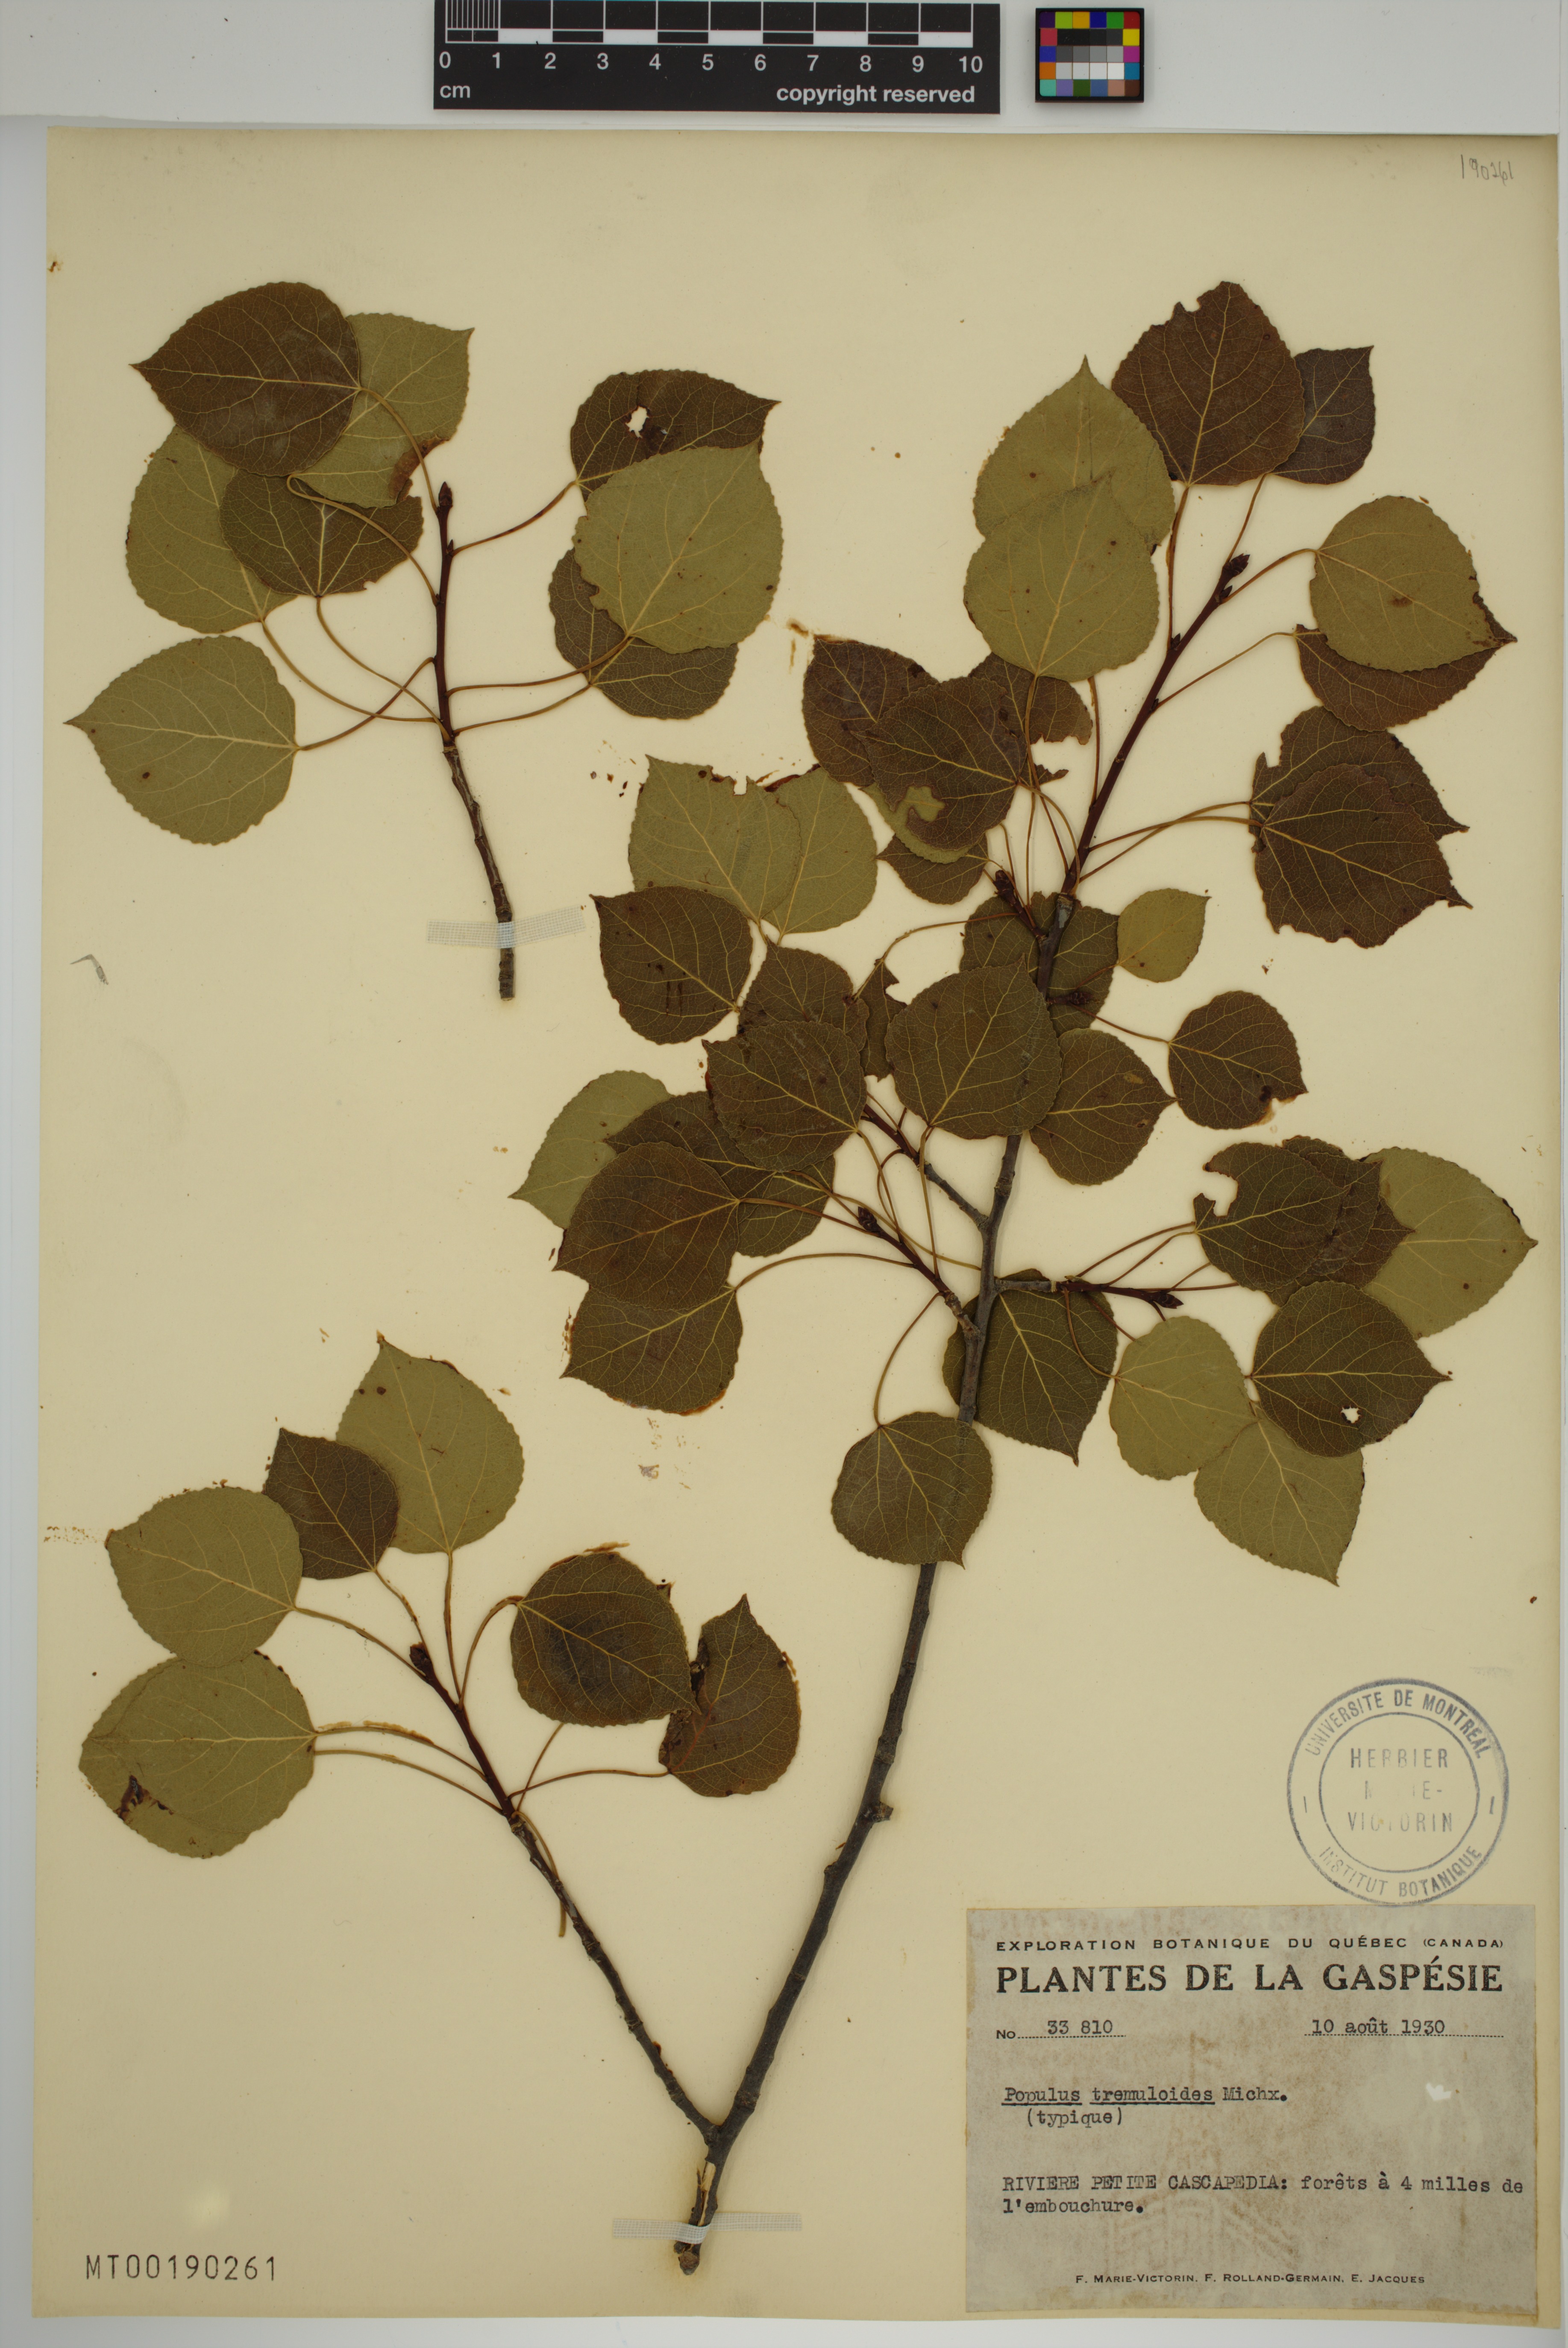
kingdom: Plantae
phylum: Tracheophyta
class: Magnoliopsida
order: Malpighiales
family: Salicaceae
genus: Populus
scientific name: Populus tremuloides
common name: Quaking aspen
